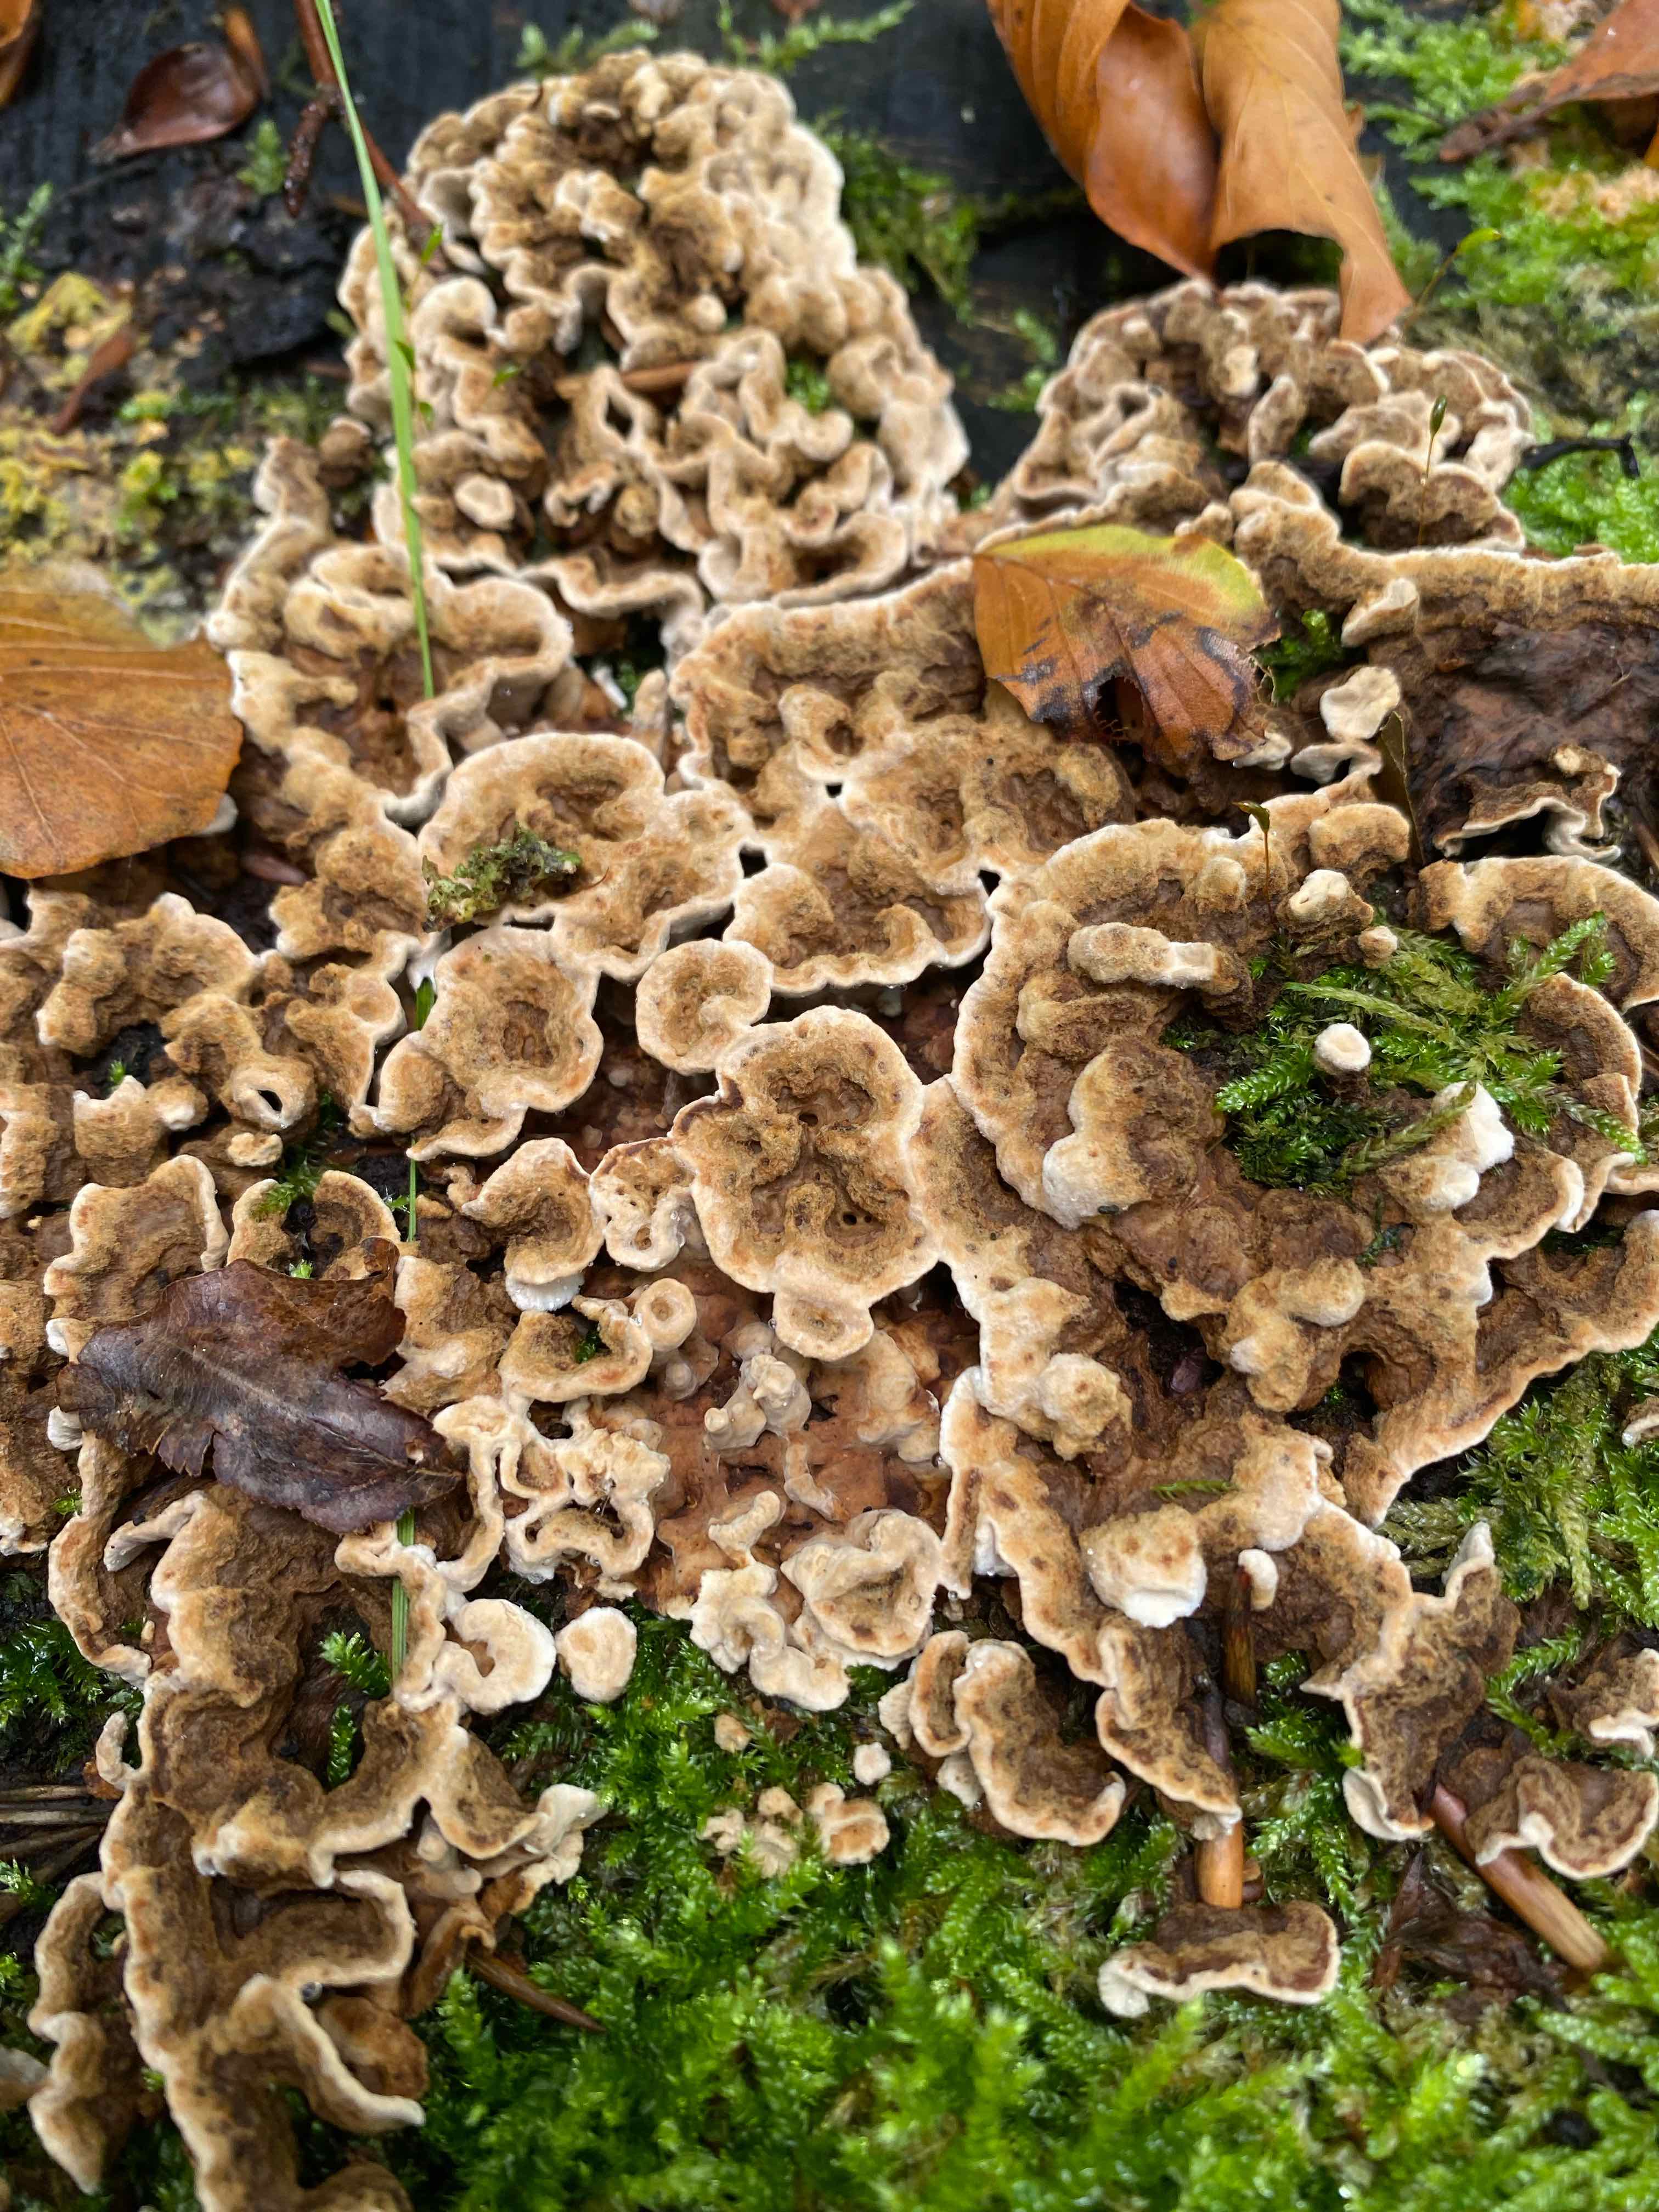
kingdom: Fungi
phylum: Basidiomycota
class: Agaricomycetes
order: Russulales
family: Hericiaceae
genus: Laxitextum
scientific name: Laxitextum bicolor
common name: tvefarvet filtskind
